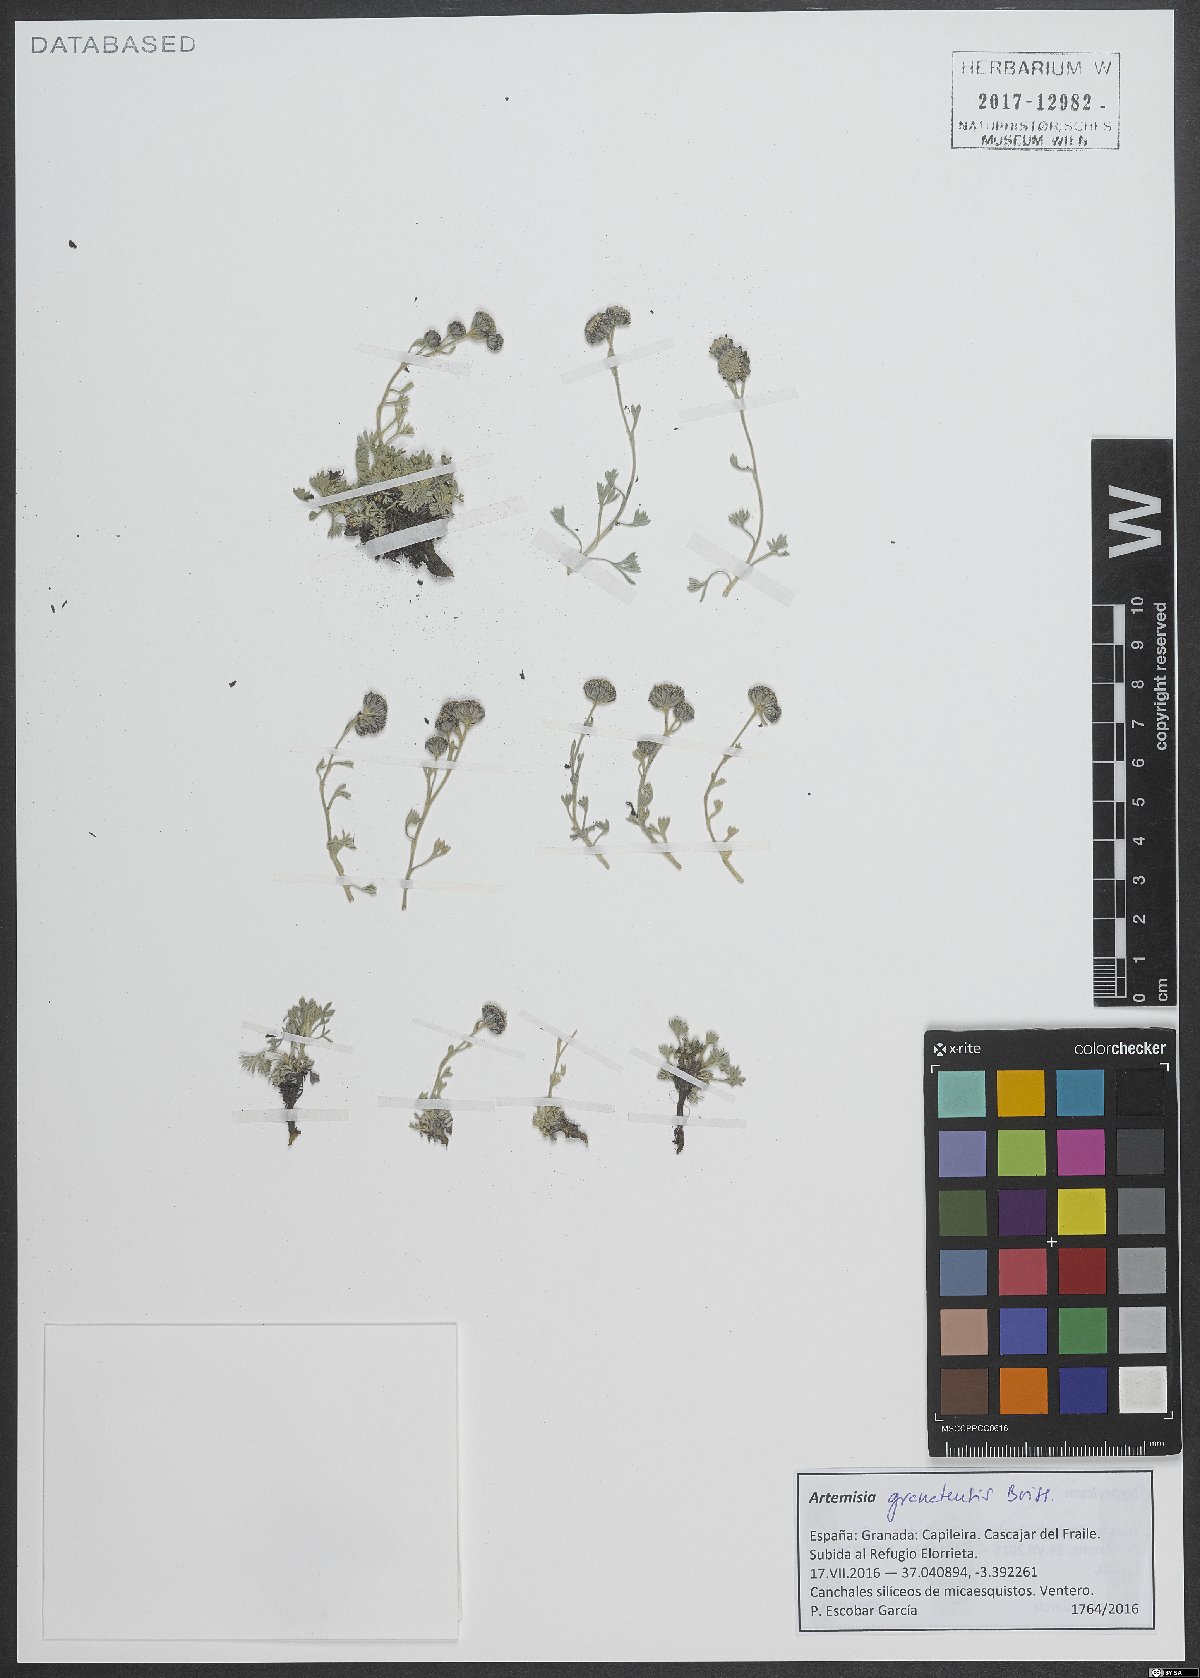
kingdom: Plantae
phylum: Tracheophyta
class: Magnoliopsida
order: Asterales
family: Asteraceae
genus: Artemisia
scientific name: Artemisia granatensis
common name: Royal chamomile
